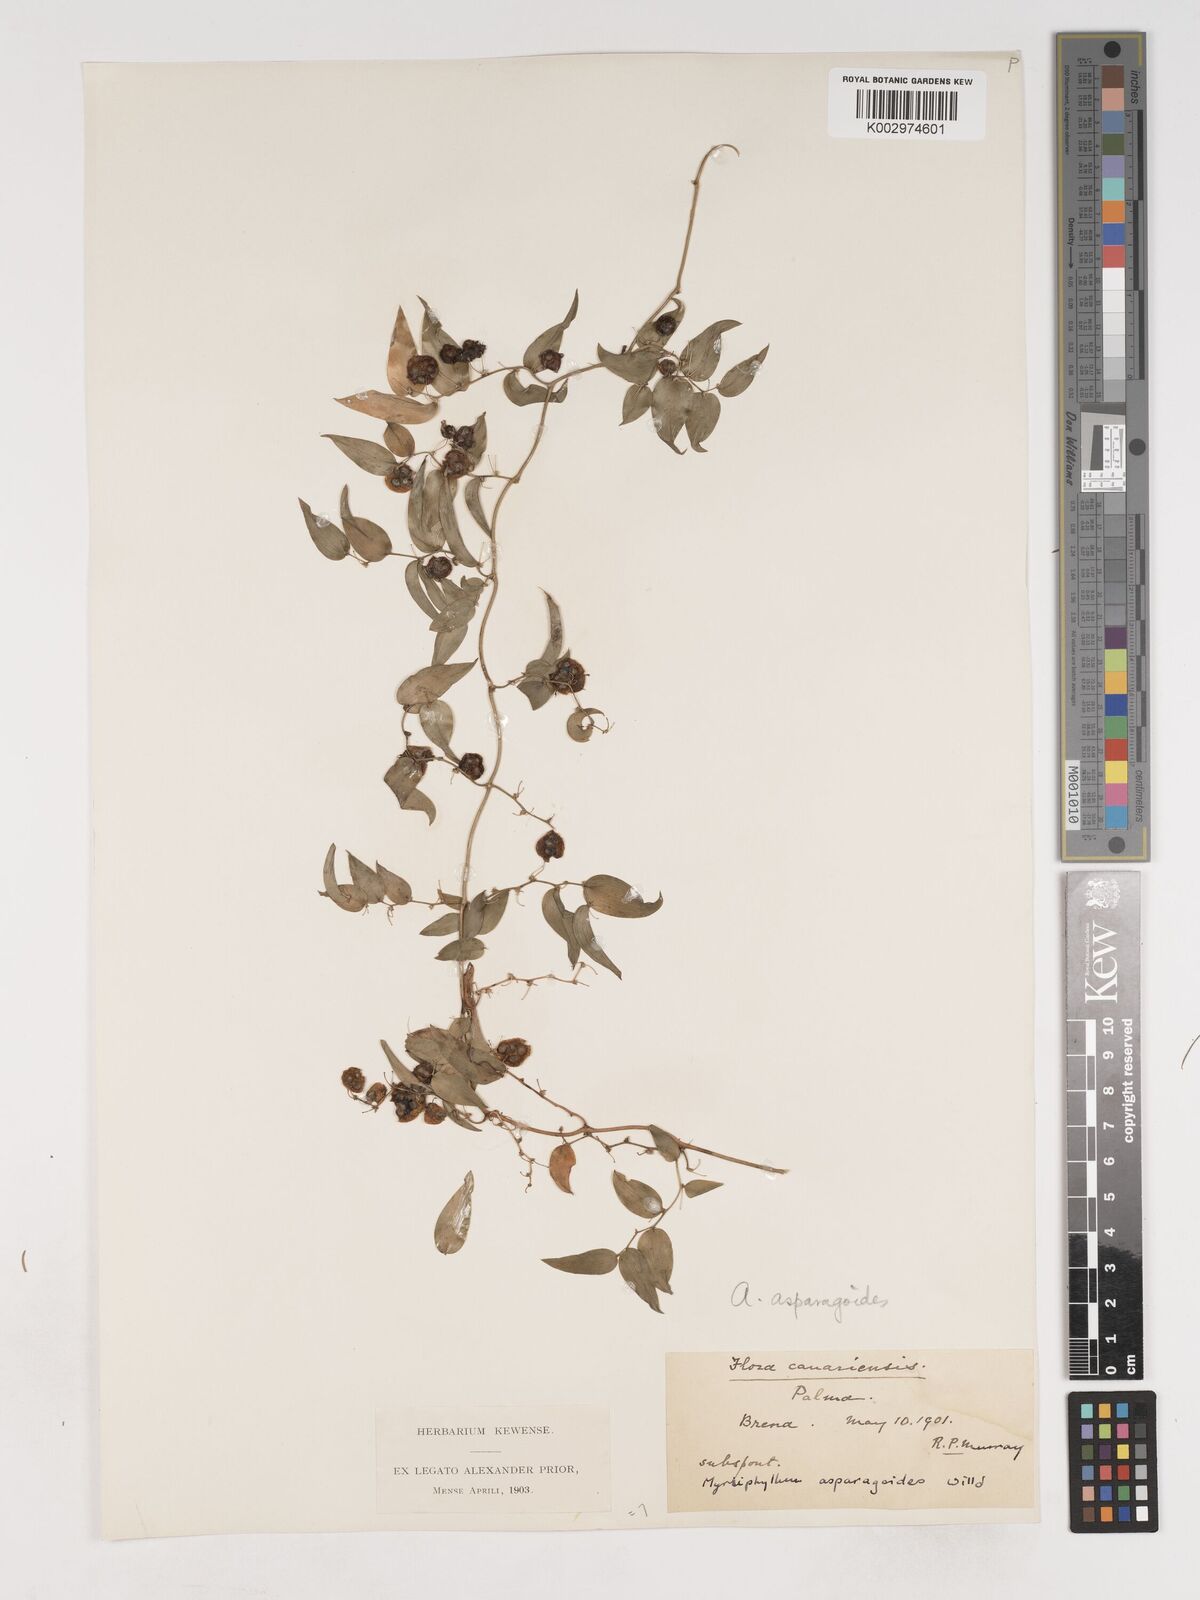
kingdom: Plantae
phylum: Tracheophyta
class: Liliopsida
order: Asparagales
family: Asparagaceae
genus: Asparagus
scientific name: Asparagus asparagoides
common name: African asparagus fern
